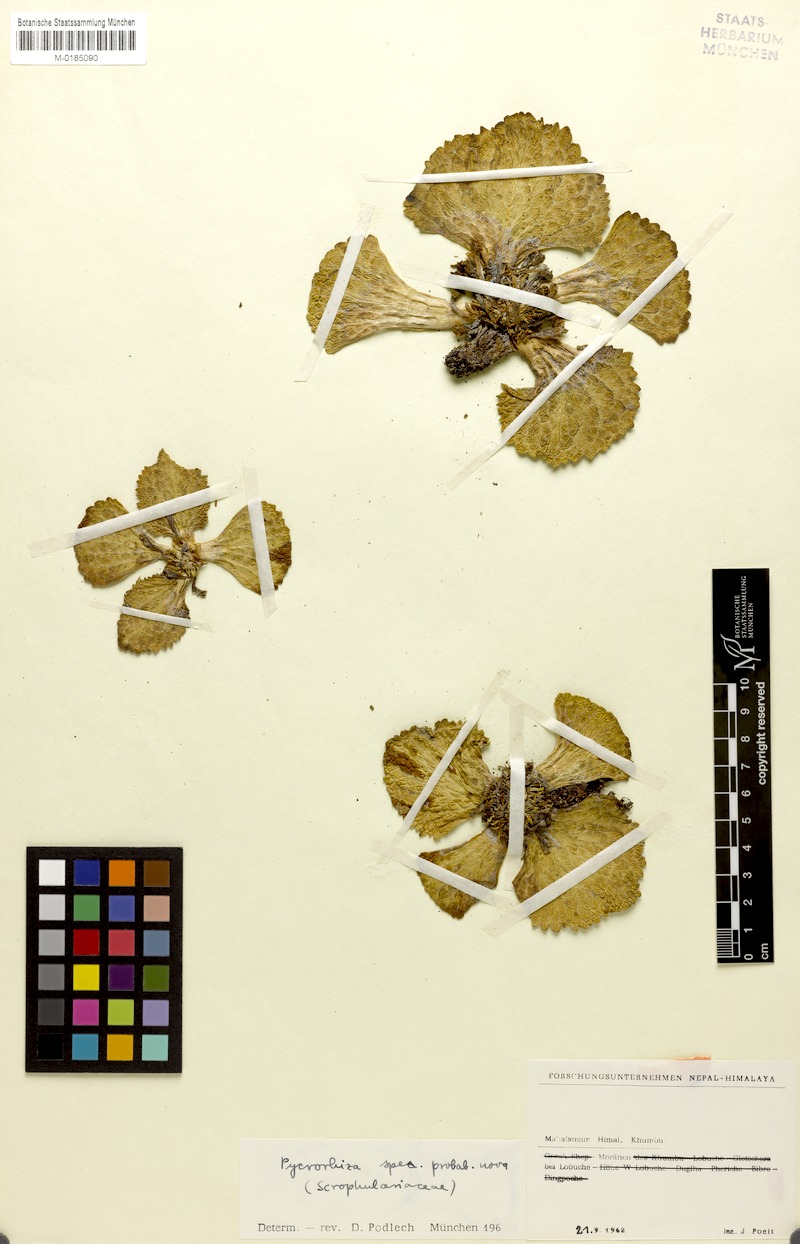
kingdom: Plantae
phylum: Tracheophyta
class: Magnoliopsida
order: Lamiales
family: Scrophulariaceae
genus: Scrophularia
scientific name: Scrophularia wattii
